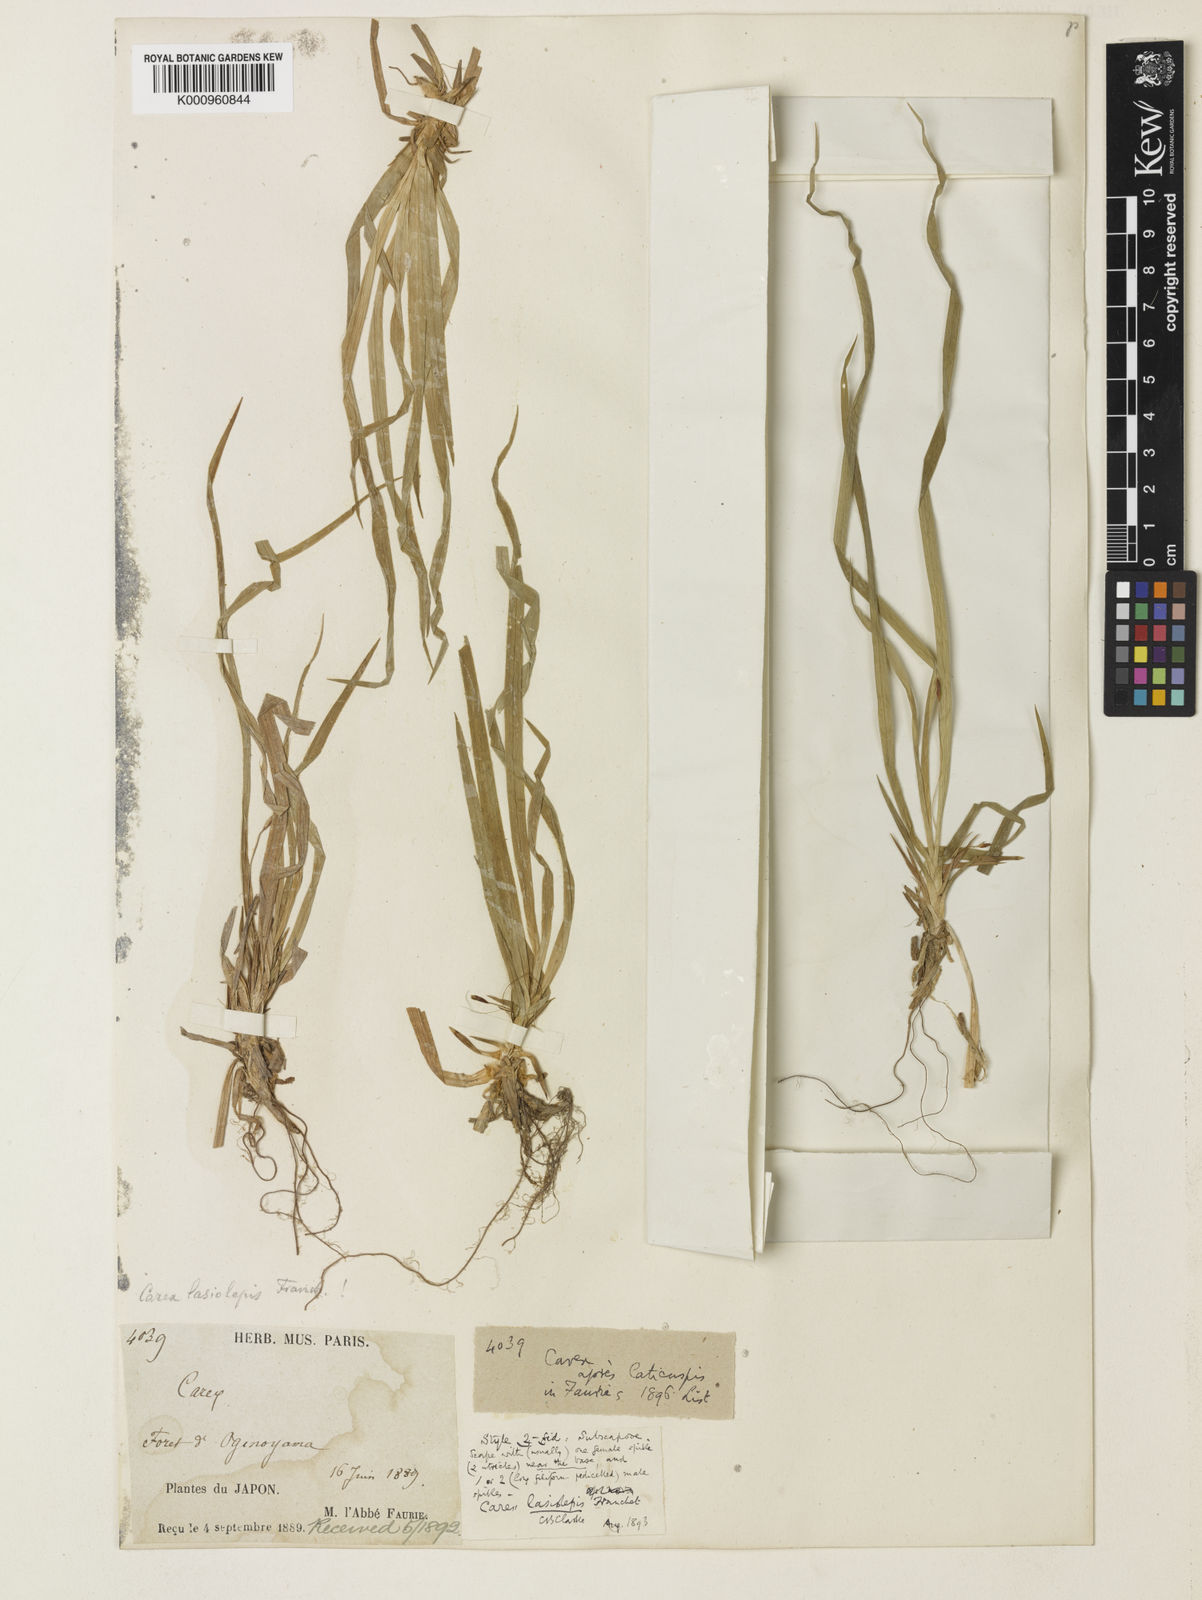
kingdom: Plantae
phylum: Tracheophyta
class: Liliopsida
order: Poales
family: Cyperaceae
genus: Carex
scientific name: Carex lasiolepis
